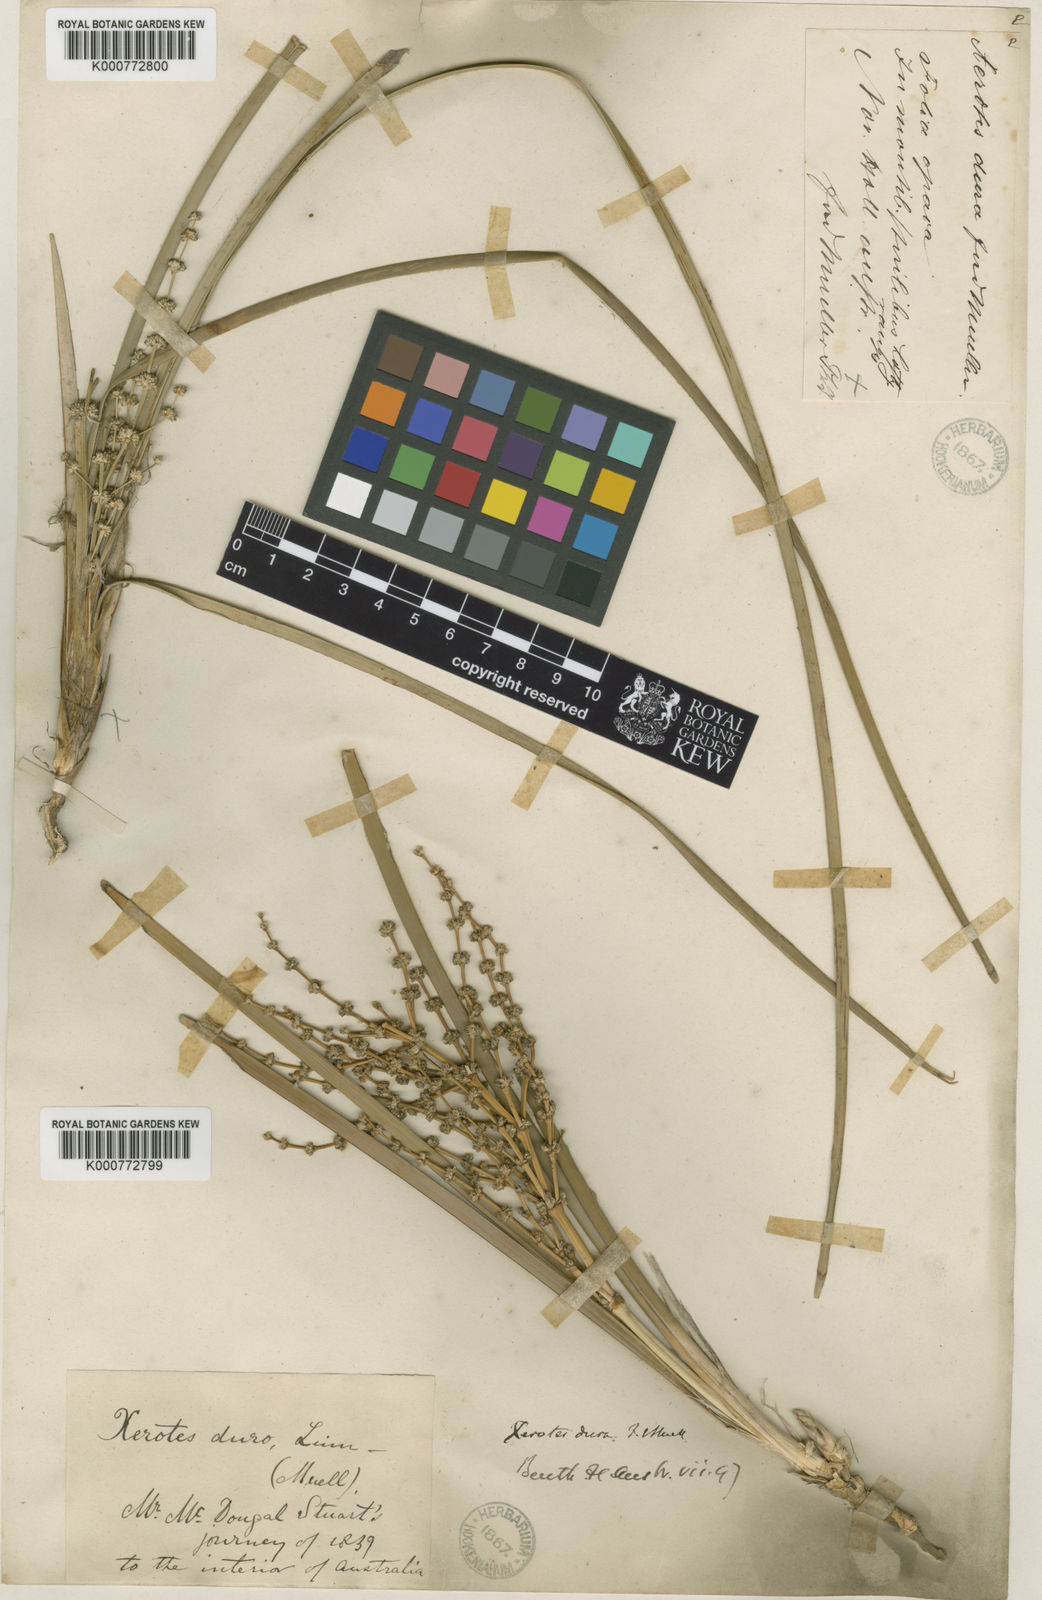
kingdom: Plantae
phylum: Tracheophyta
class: Liliopsida
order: Asparagales
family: Asparagaceae
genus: Lomandra
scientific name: Lomandra multiflora
